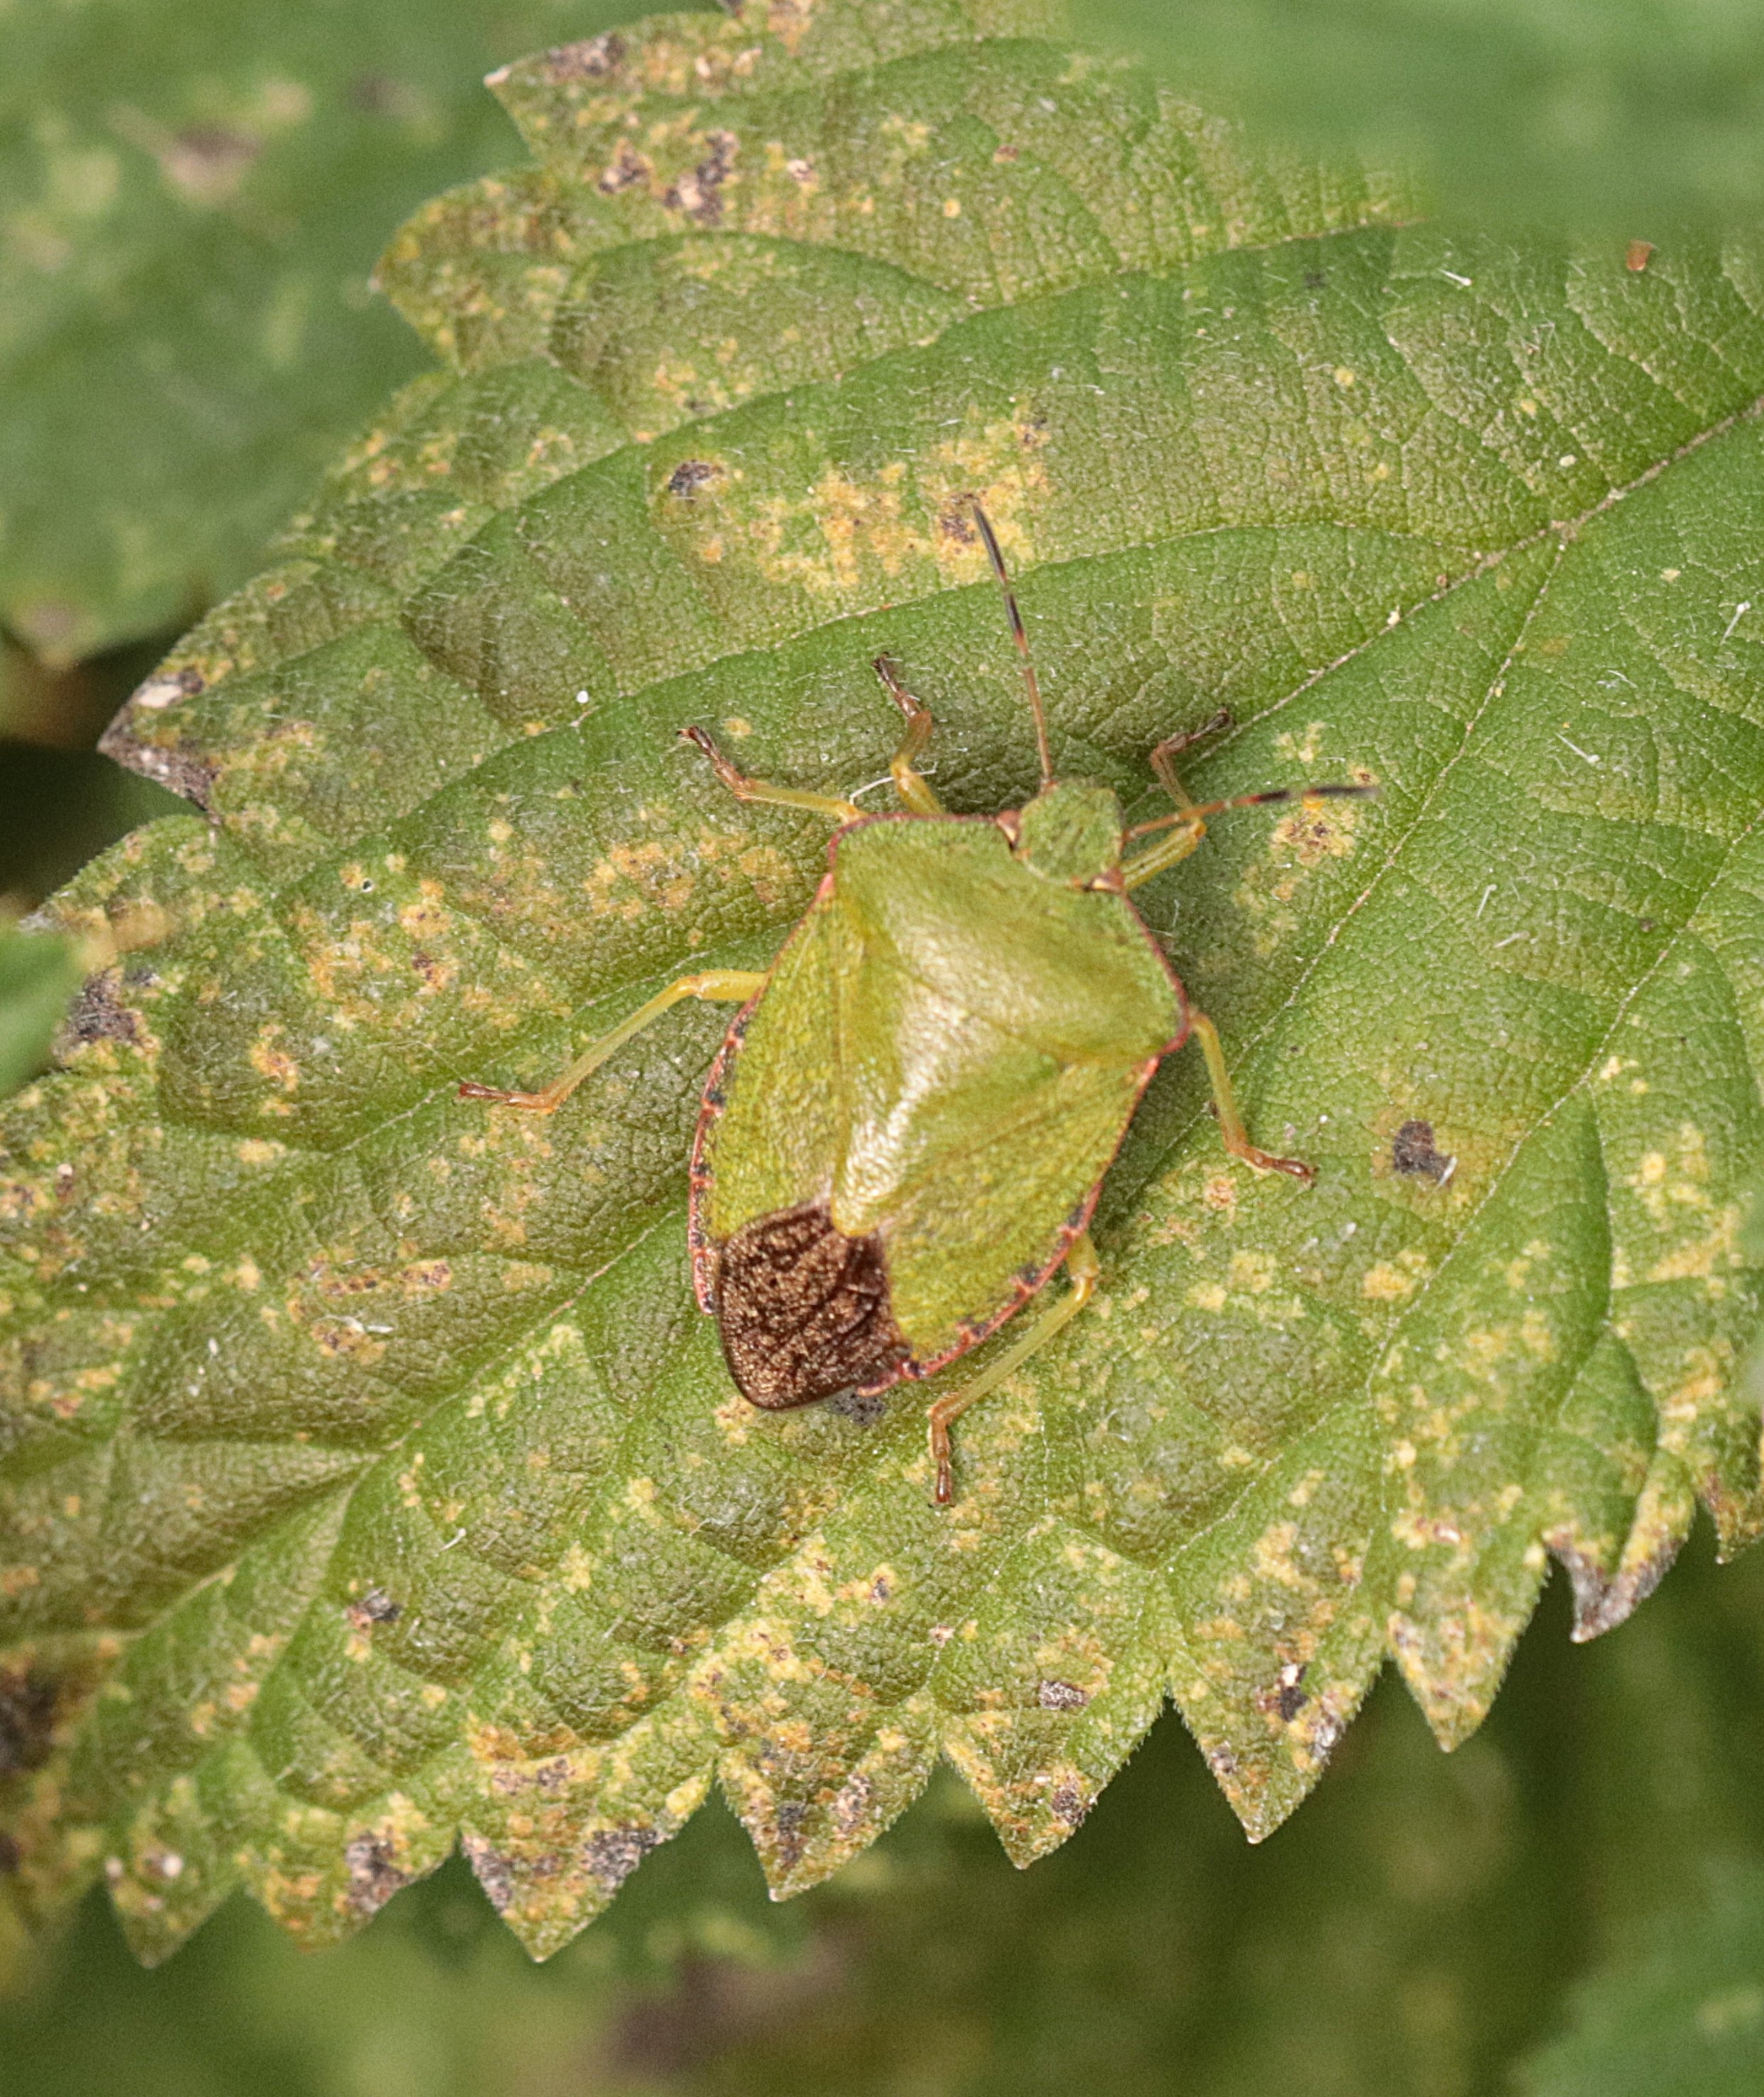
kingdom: Animalia
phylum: Arthropoda
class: Insecta
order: Hemiptera
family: Pentatomidae
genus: Palomena
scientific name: Palomena prasina
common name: Grøn bredtæge
